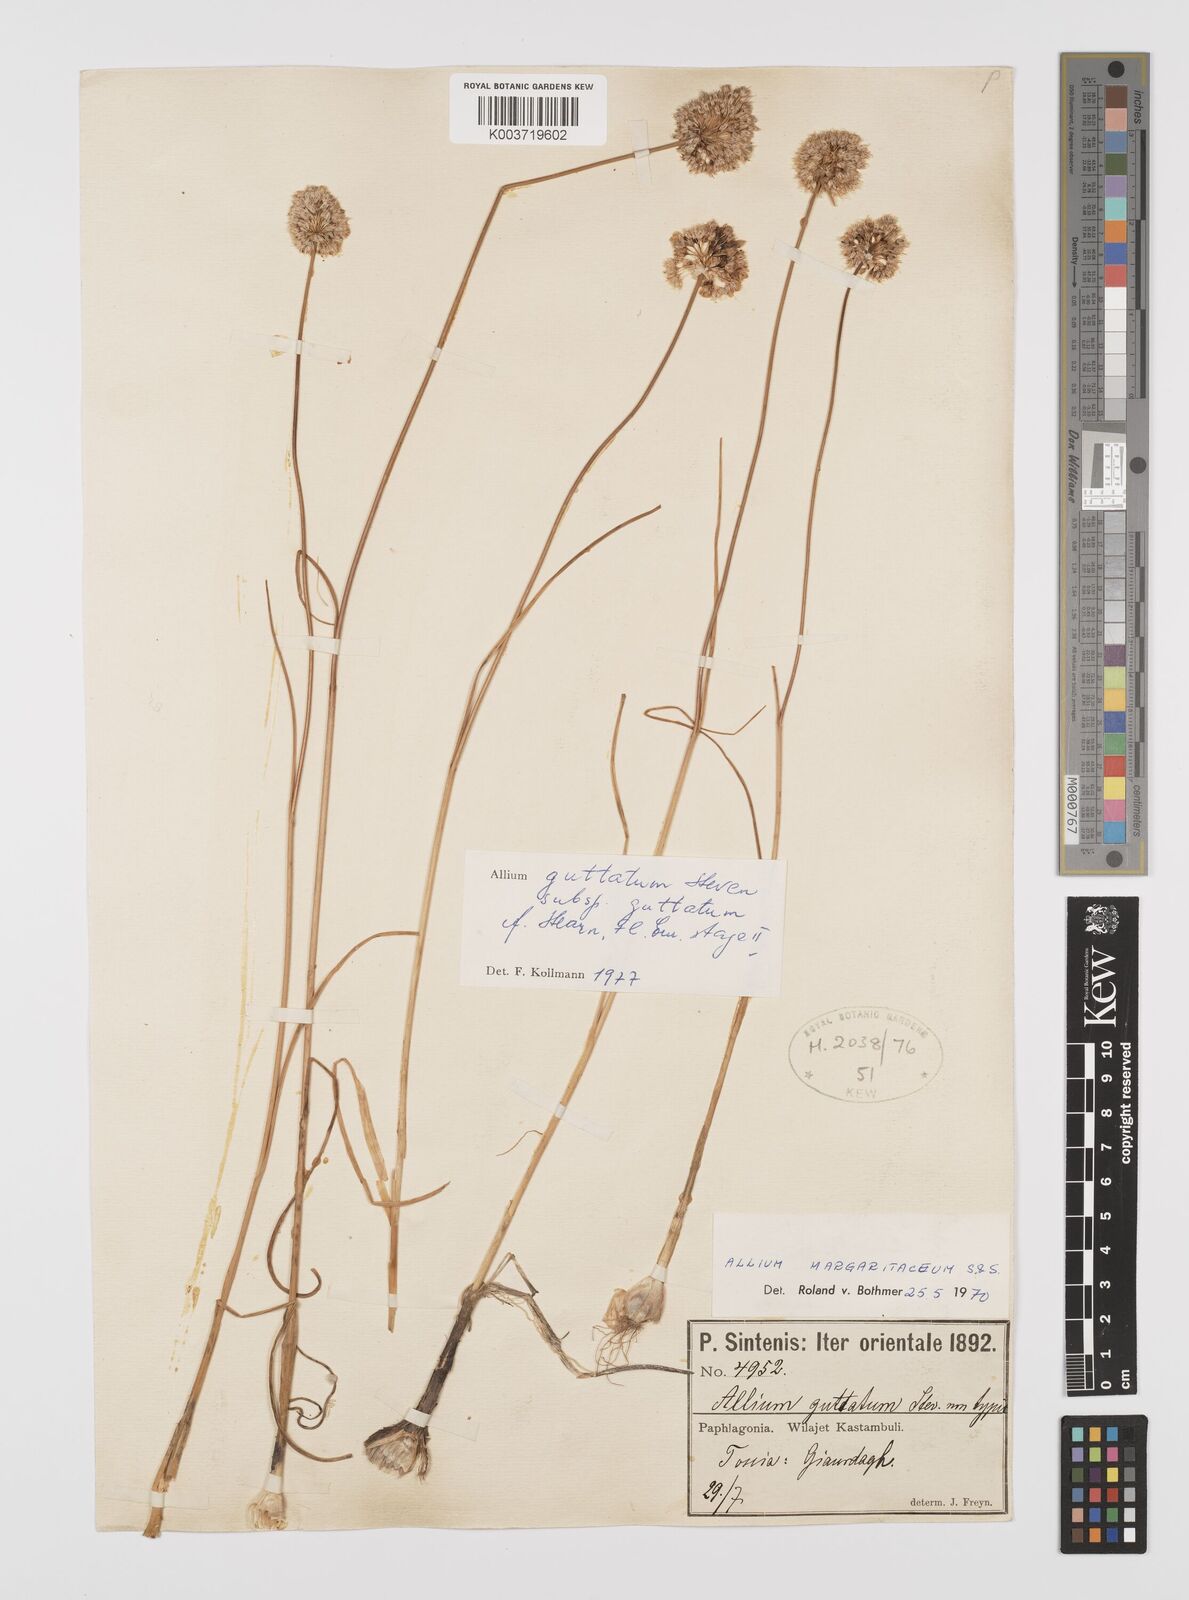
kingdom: Plantae
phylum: Tracheophyta
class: Liliopsida
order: Asparagales
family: Amaryllidaceae
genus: Allium
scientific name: Allium guttatum
